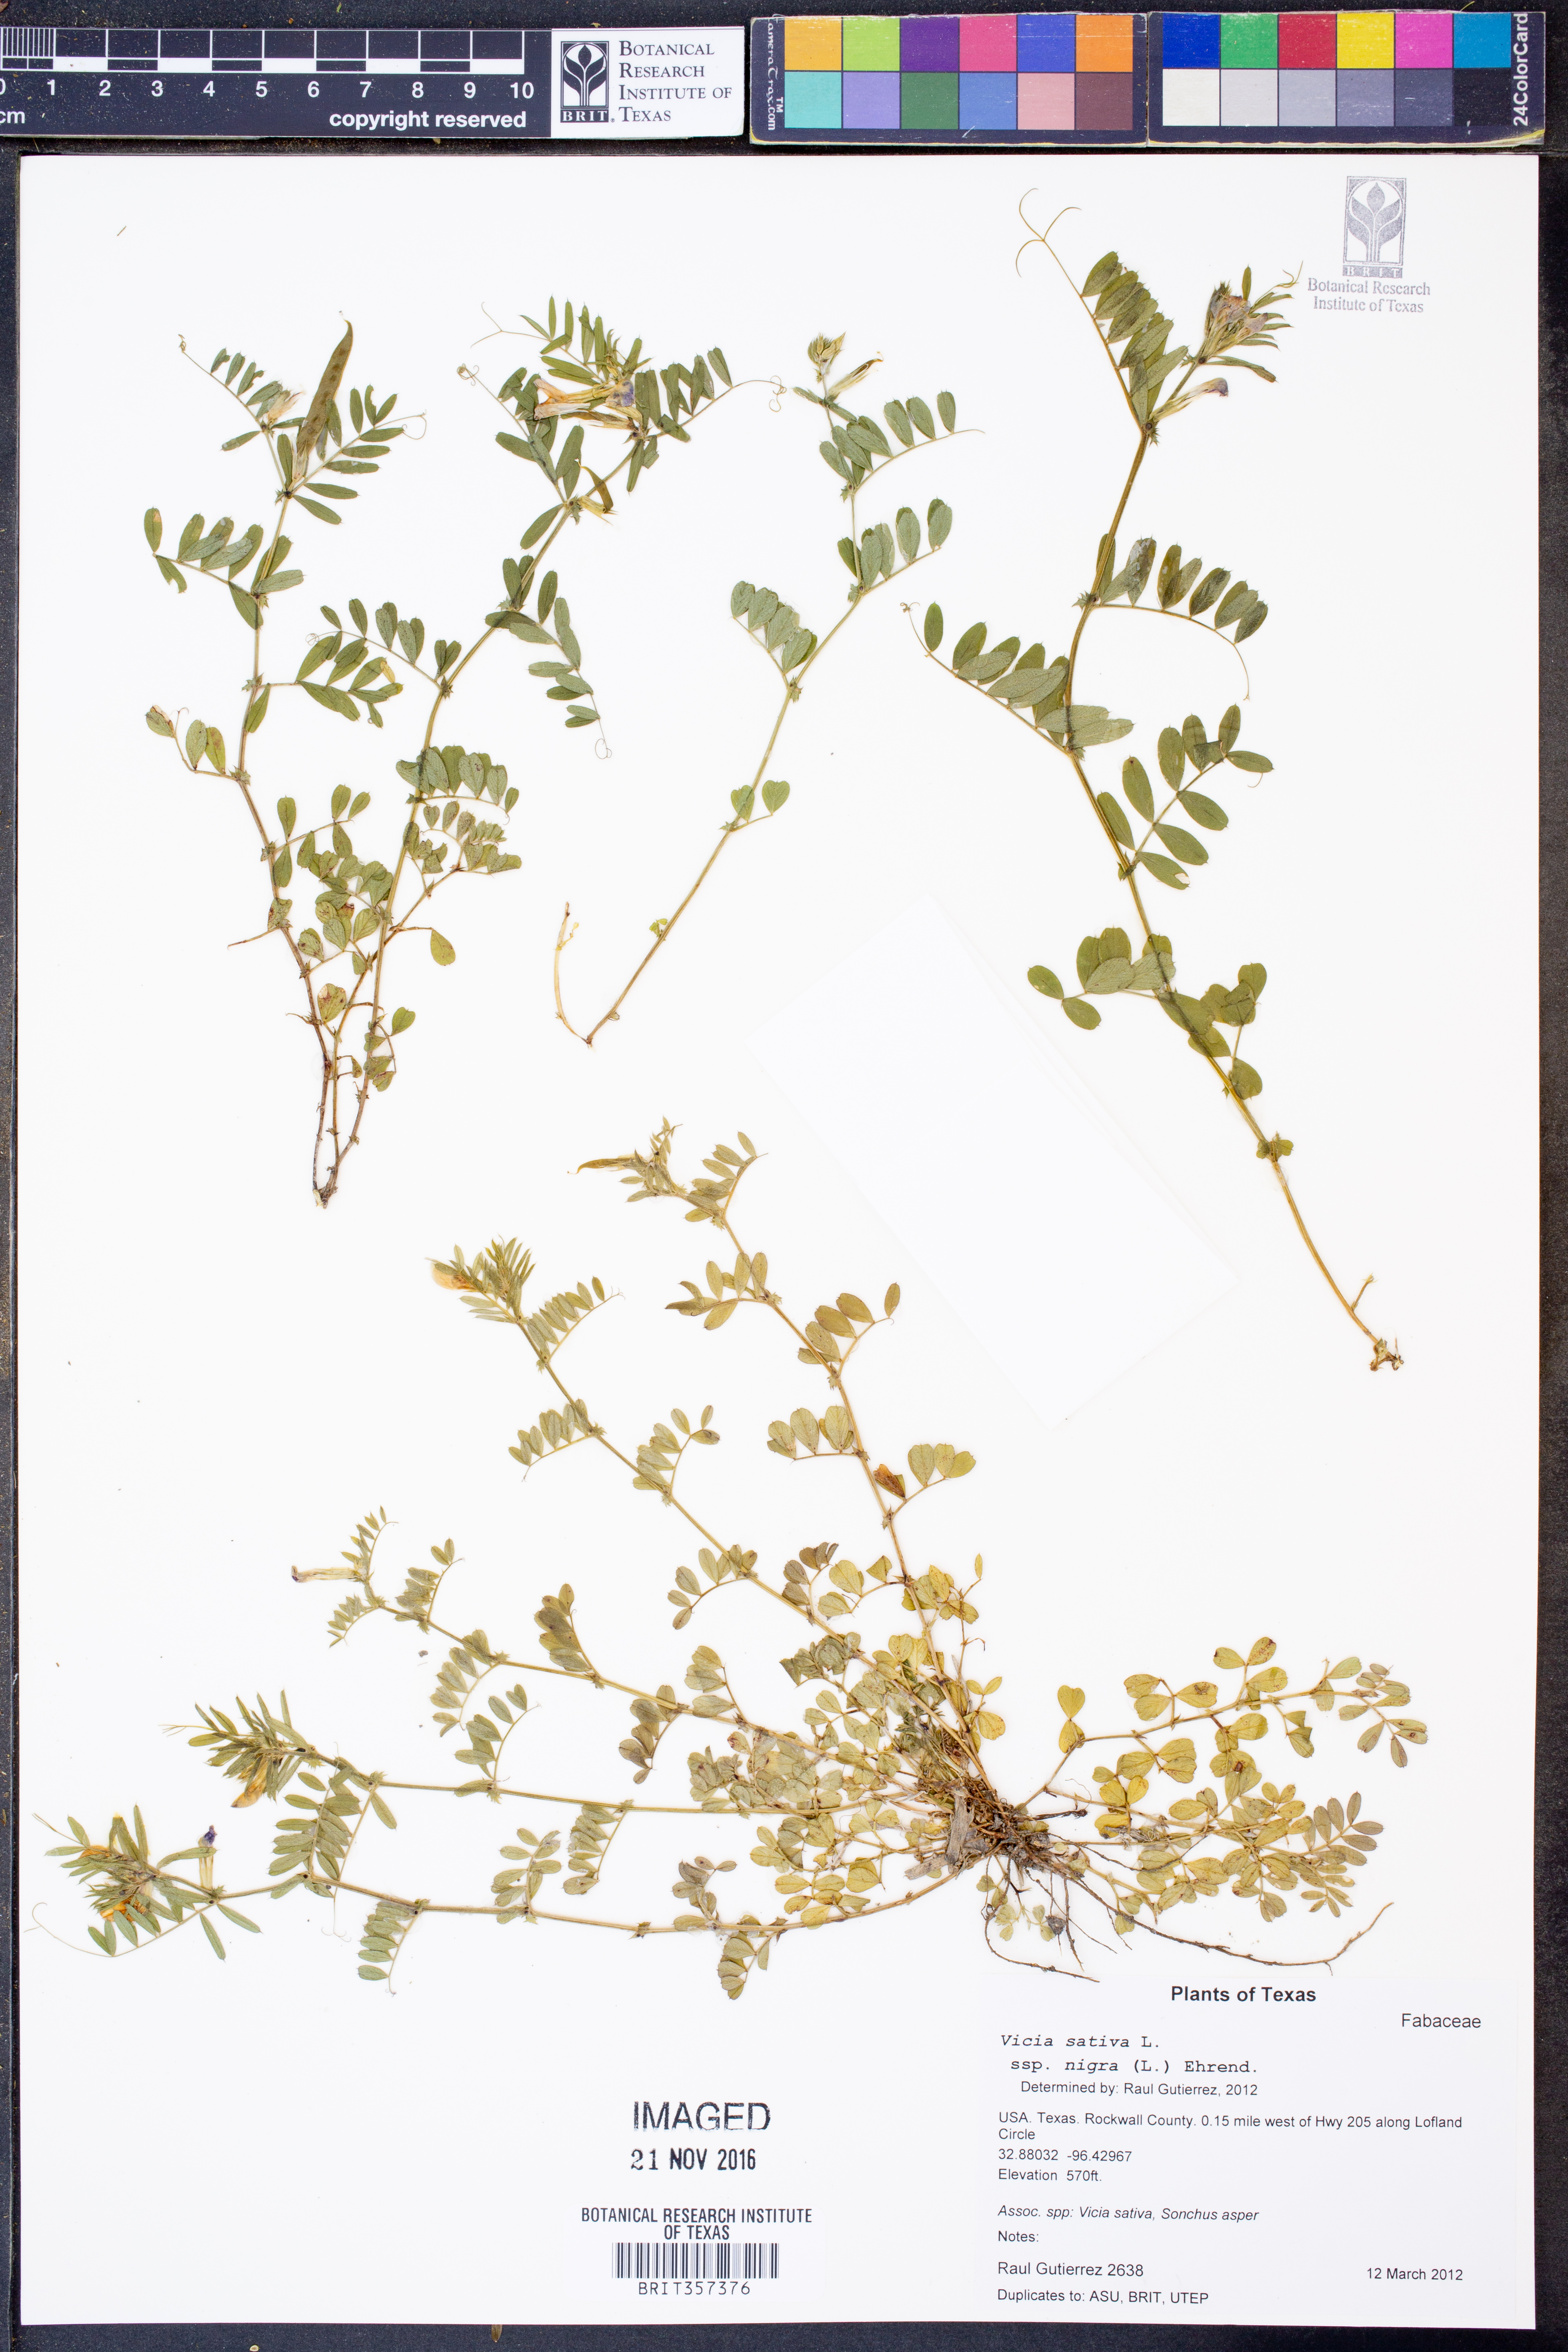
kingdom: Plantae
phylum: Tracheophyta
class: Magnoliopsida
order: Fabales
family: Fabaceae
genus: Vicia
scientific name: Vicia sativa
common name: Garden vetch
